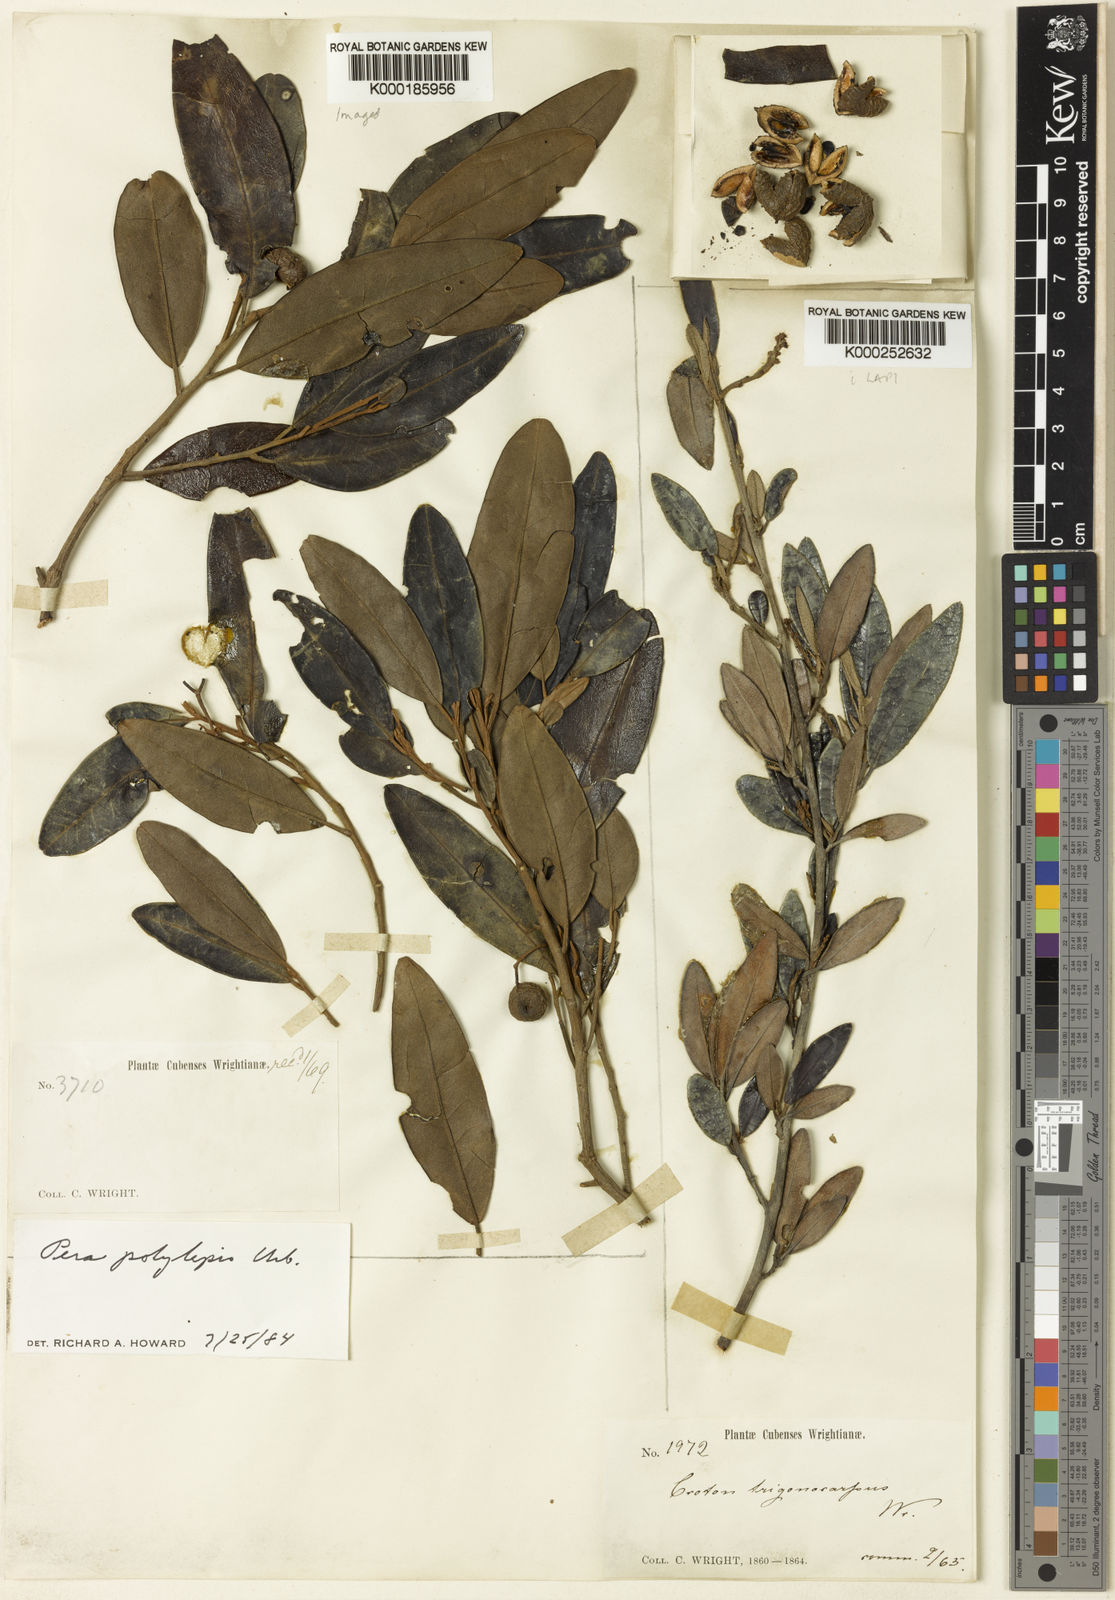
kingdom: Plantae
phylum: Tracheophyta
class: Magnoliopsida
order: Malpighiales
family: Euphorbiaceae
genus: Croton
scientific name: Croton
